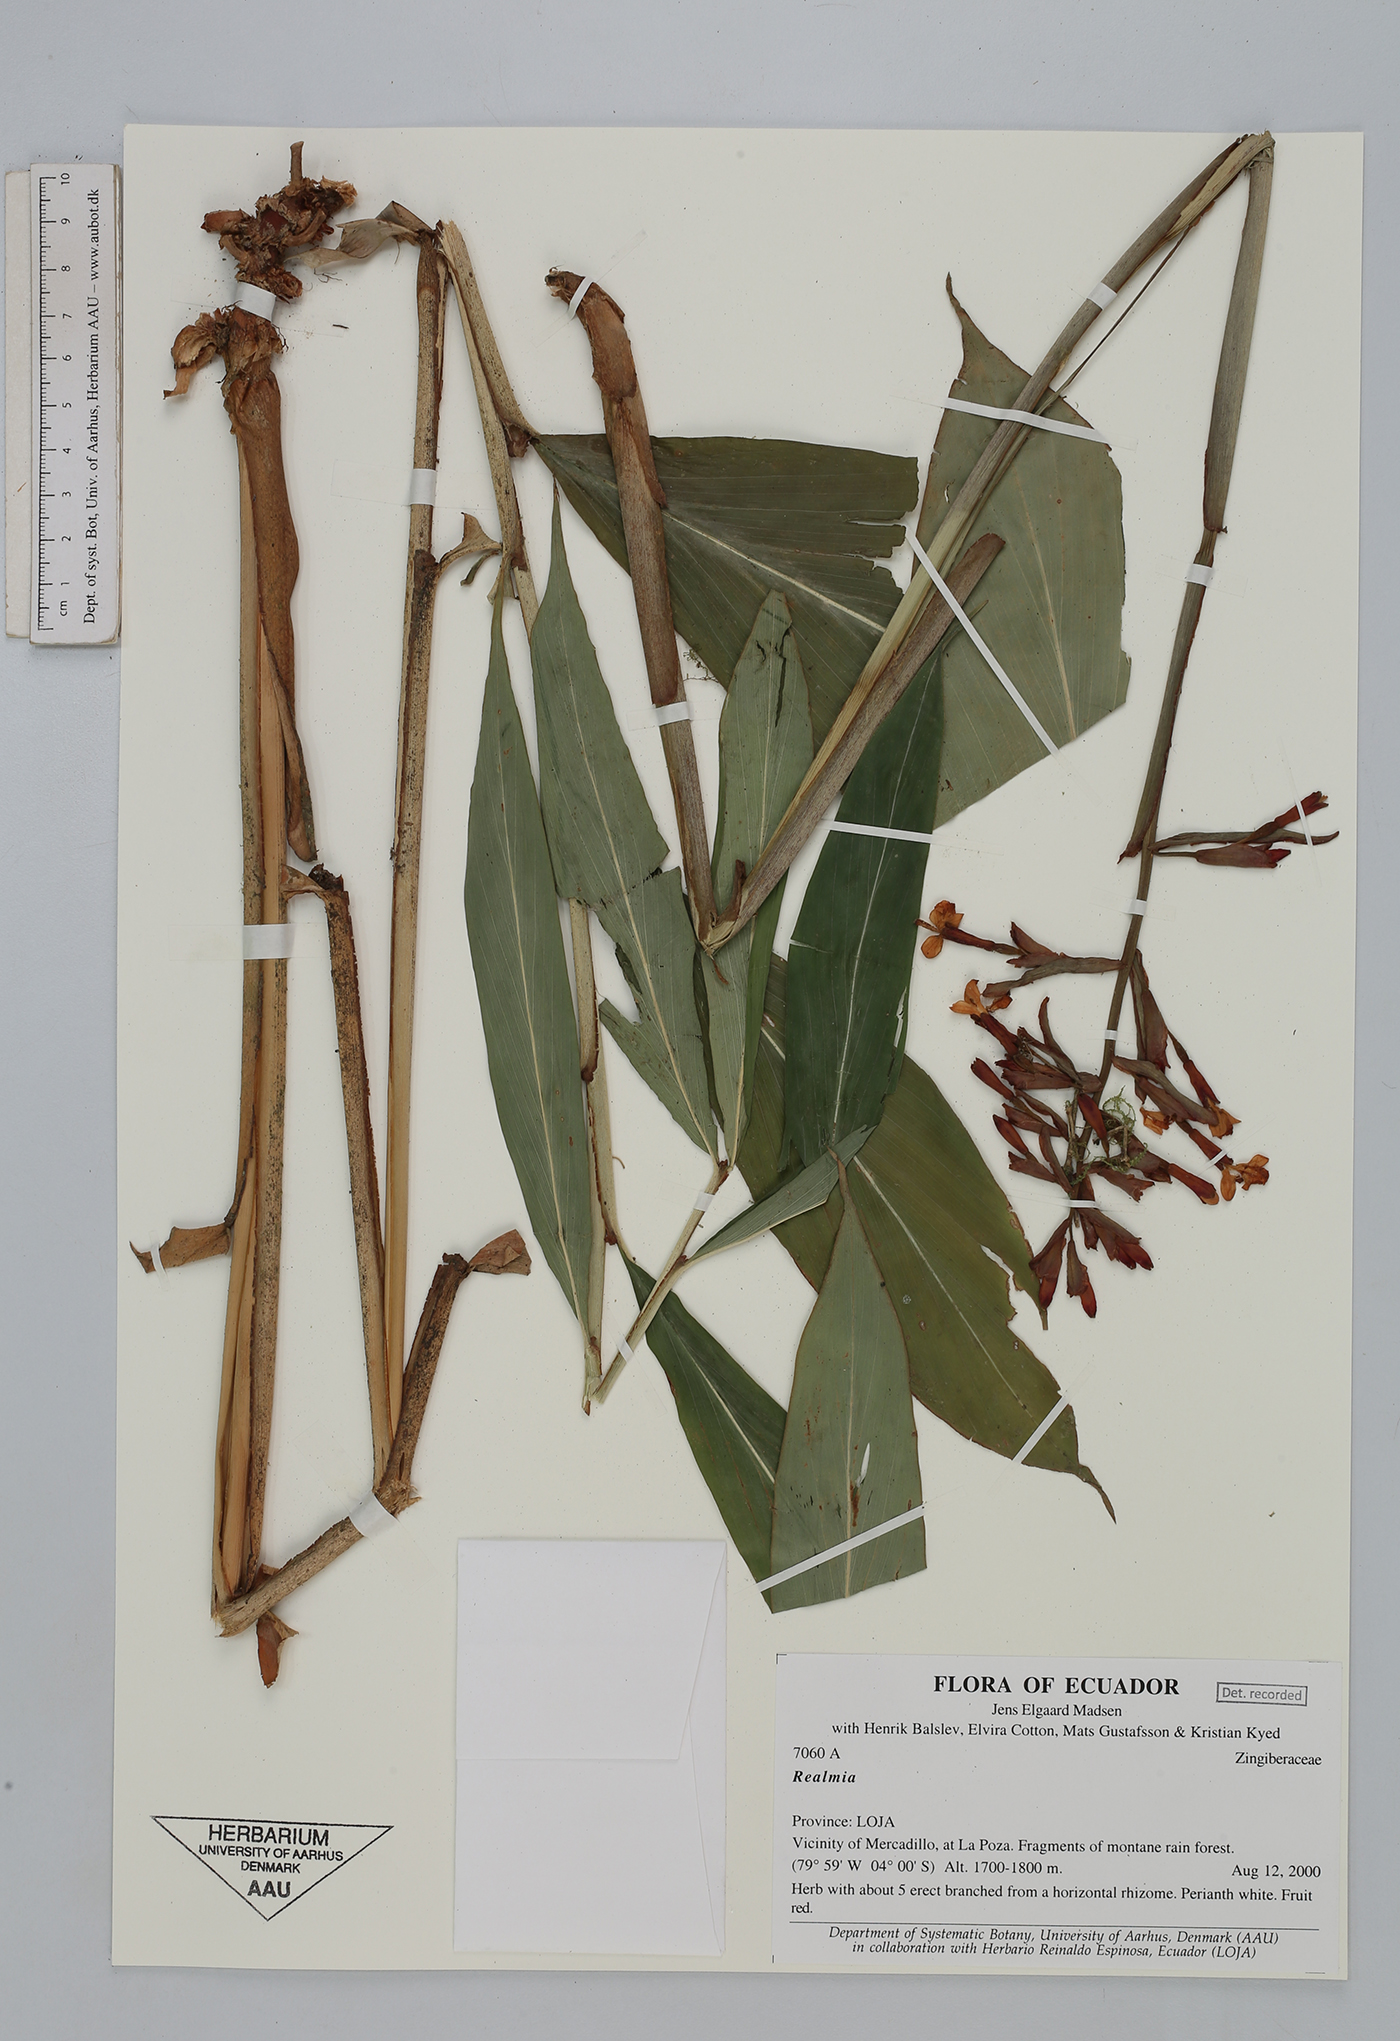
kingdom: Plantae
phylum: Tracheophyta
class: Liliopsida
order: Zingiberales
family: Zingiberaceae
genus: Renealmia
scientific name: Renealmia
